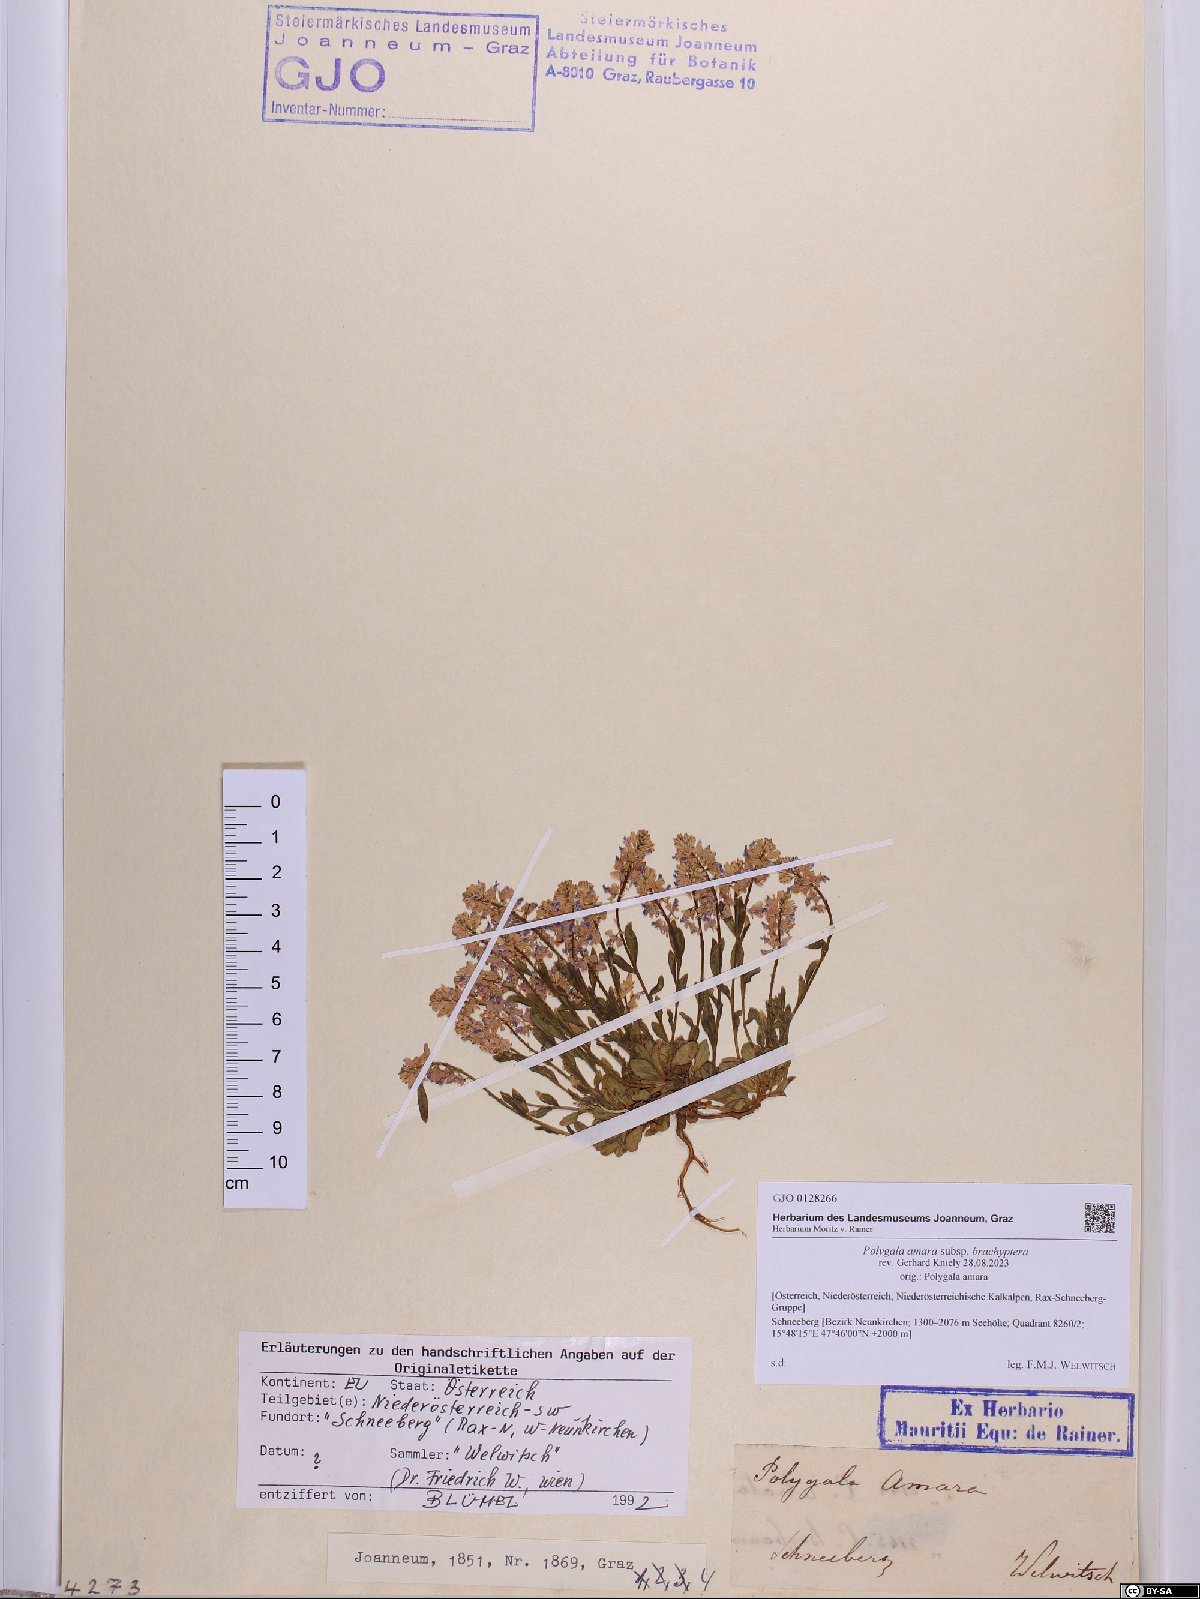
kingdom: Plantae
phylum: Tracheophyta
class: Magnoliopsida
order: Fabales
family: Polygalaceae
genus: Polygala
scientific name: Polygala amara
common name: Milkwort
